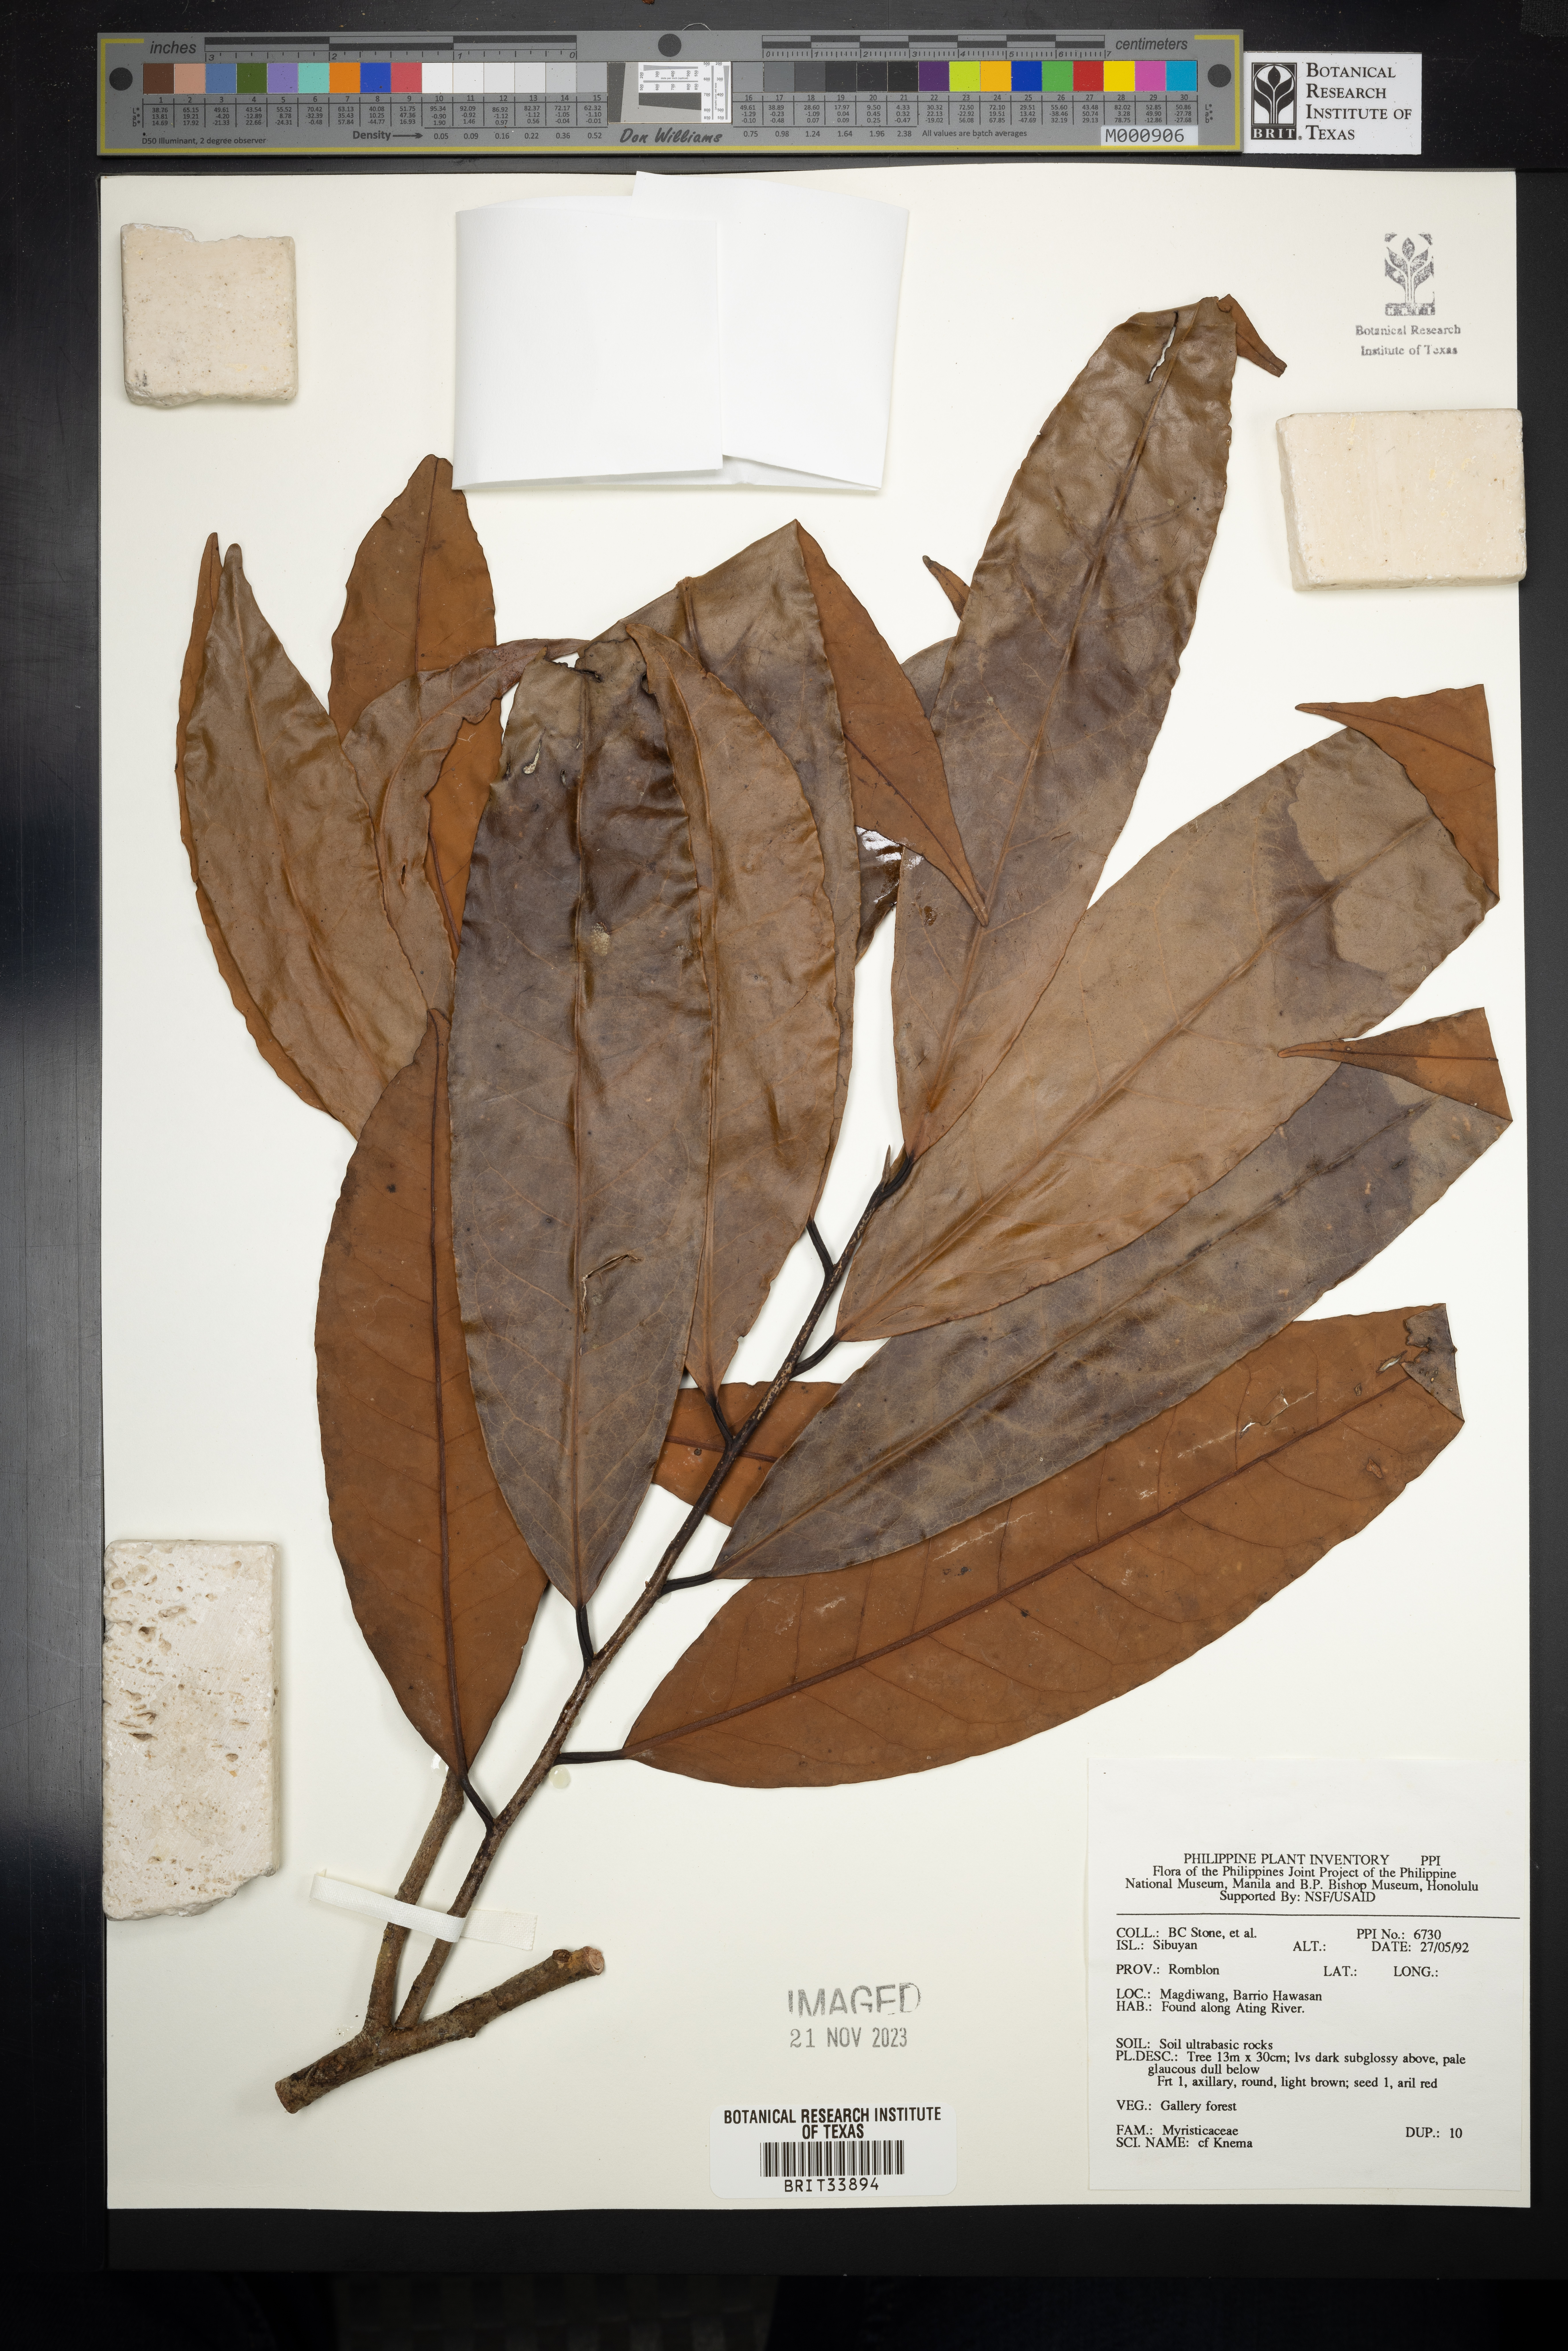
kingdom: Plantae
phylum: Tracheophyta
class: Magnoliopsida
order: Magnoliales
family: Myristicaceae
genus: Knema
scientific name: Knema
